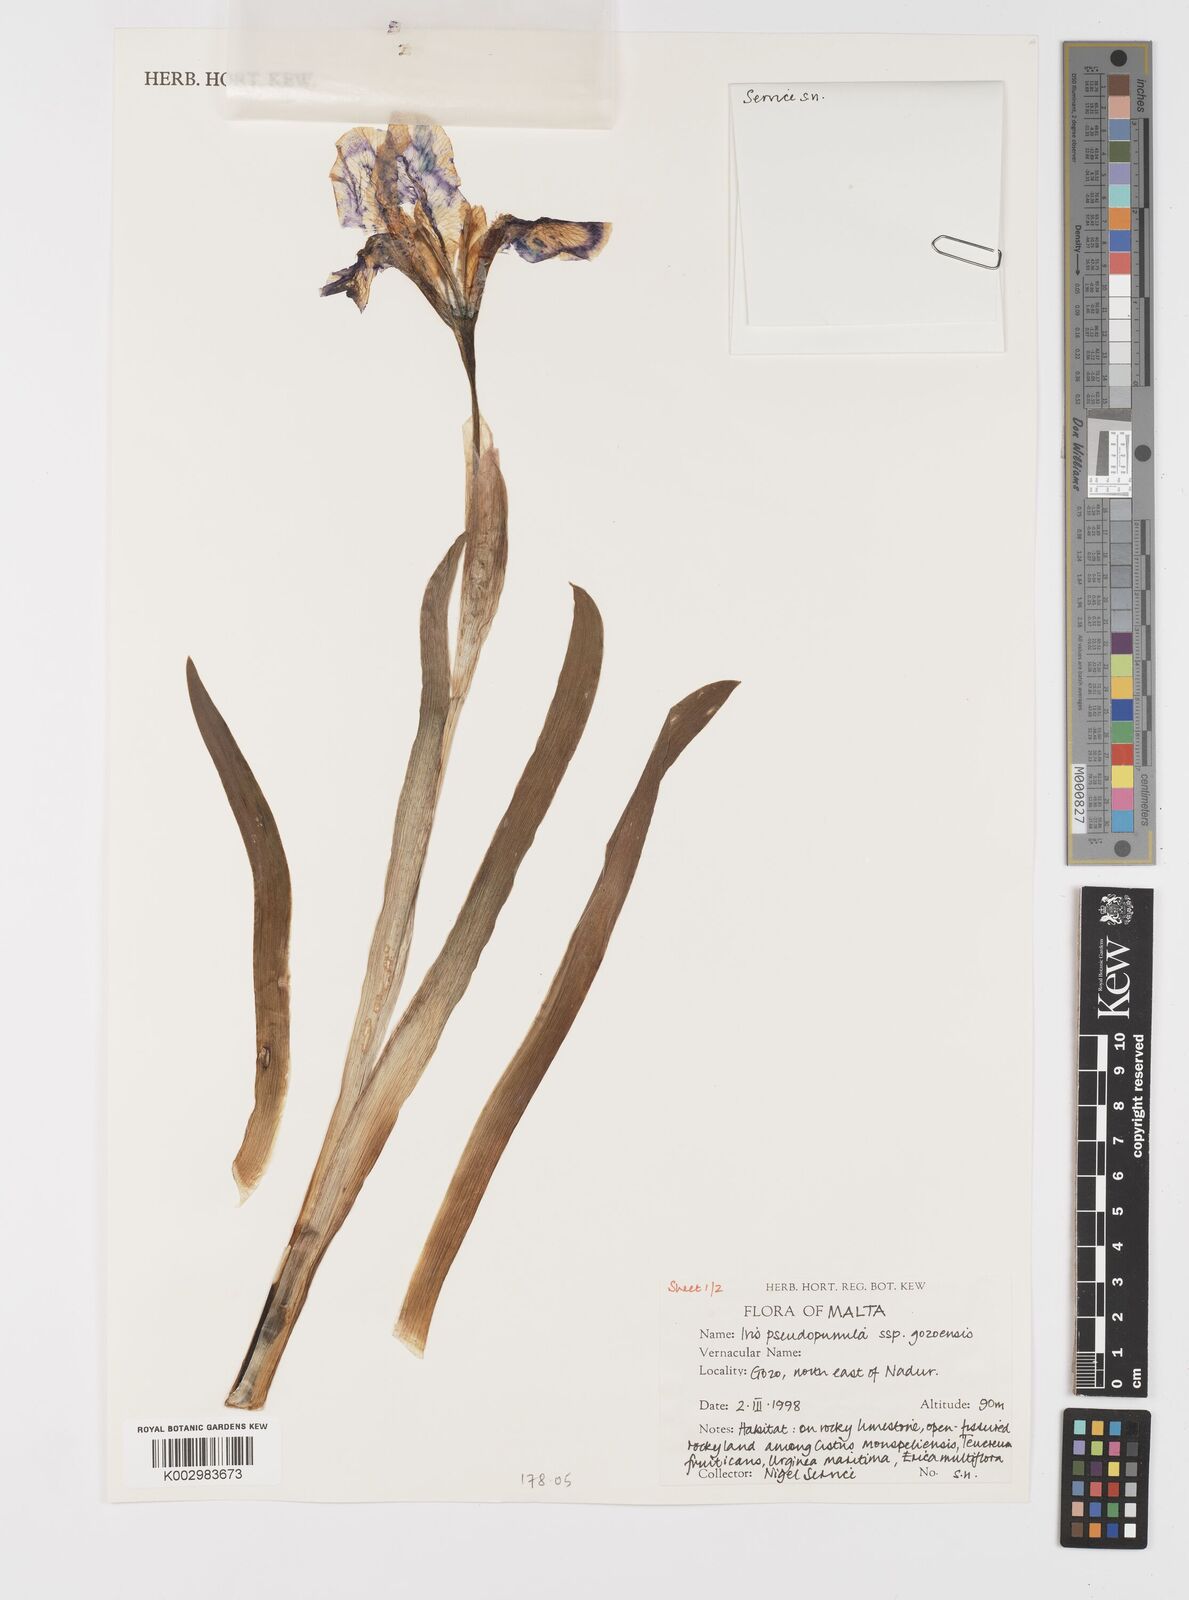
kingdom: Plantae
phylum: Tracheophyta
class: Liliopsida
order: Asparagales
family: Iridaceae
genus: Iris
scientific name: Iris pseudopumila
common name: Southern dwarf iris
